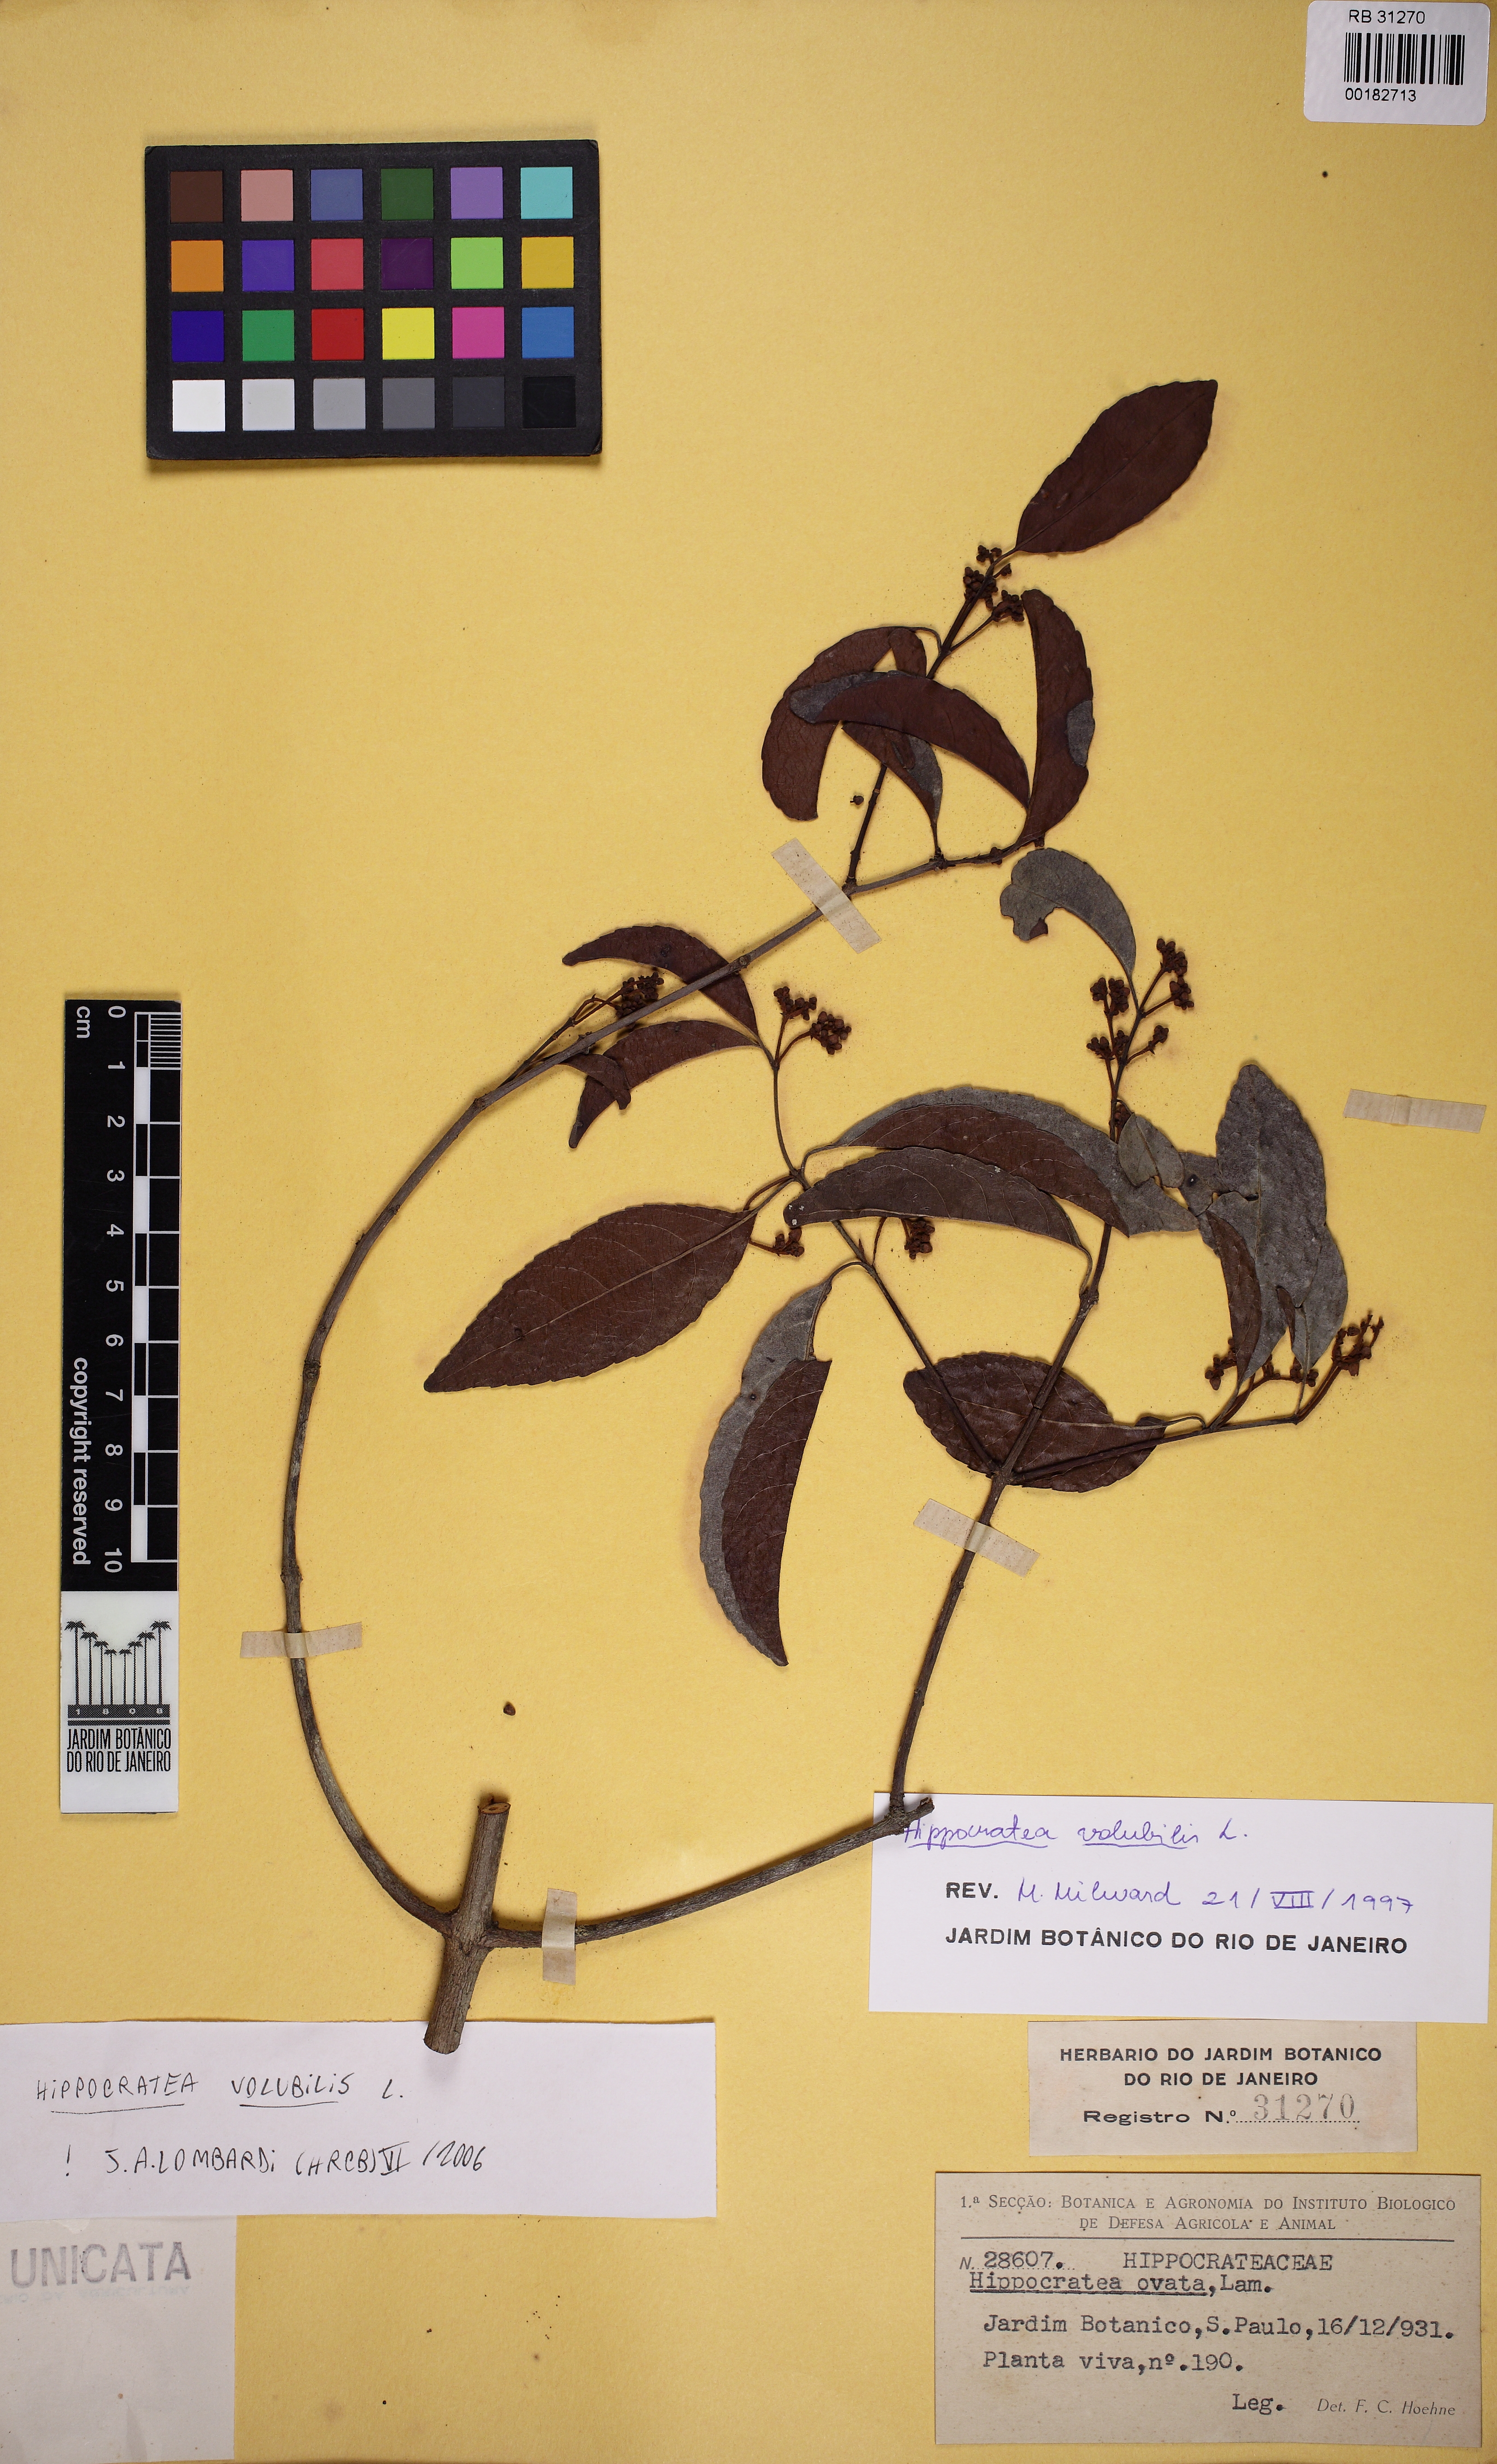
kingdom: Plantae
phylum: Tracheophyta
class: Magnoliopsida
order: Celastrales
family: Celastraceae
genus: Hippocratea
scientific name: Hippocratea volubilis
